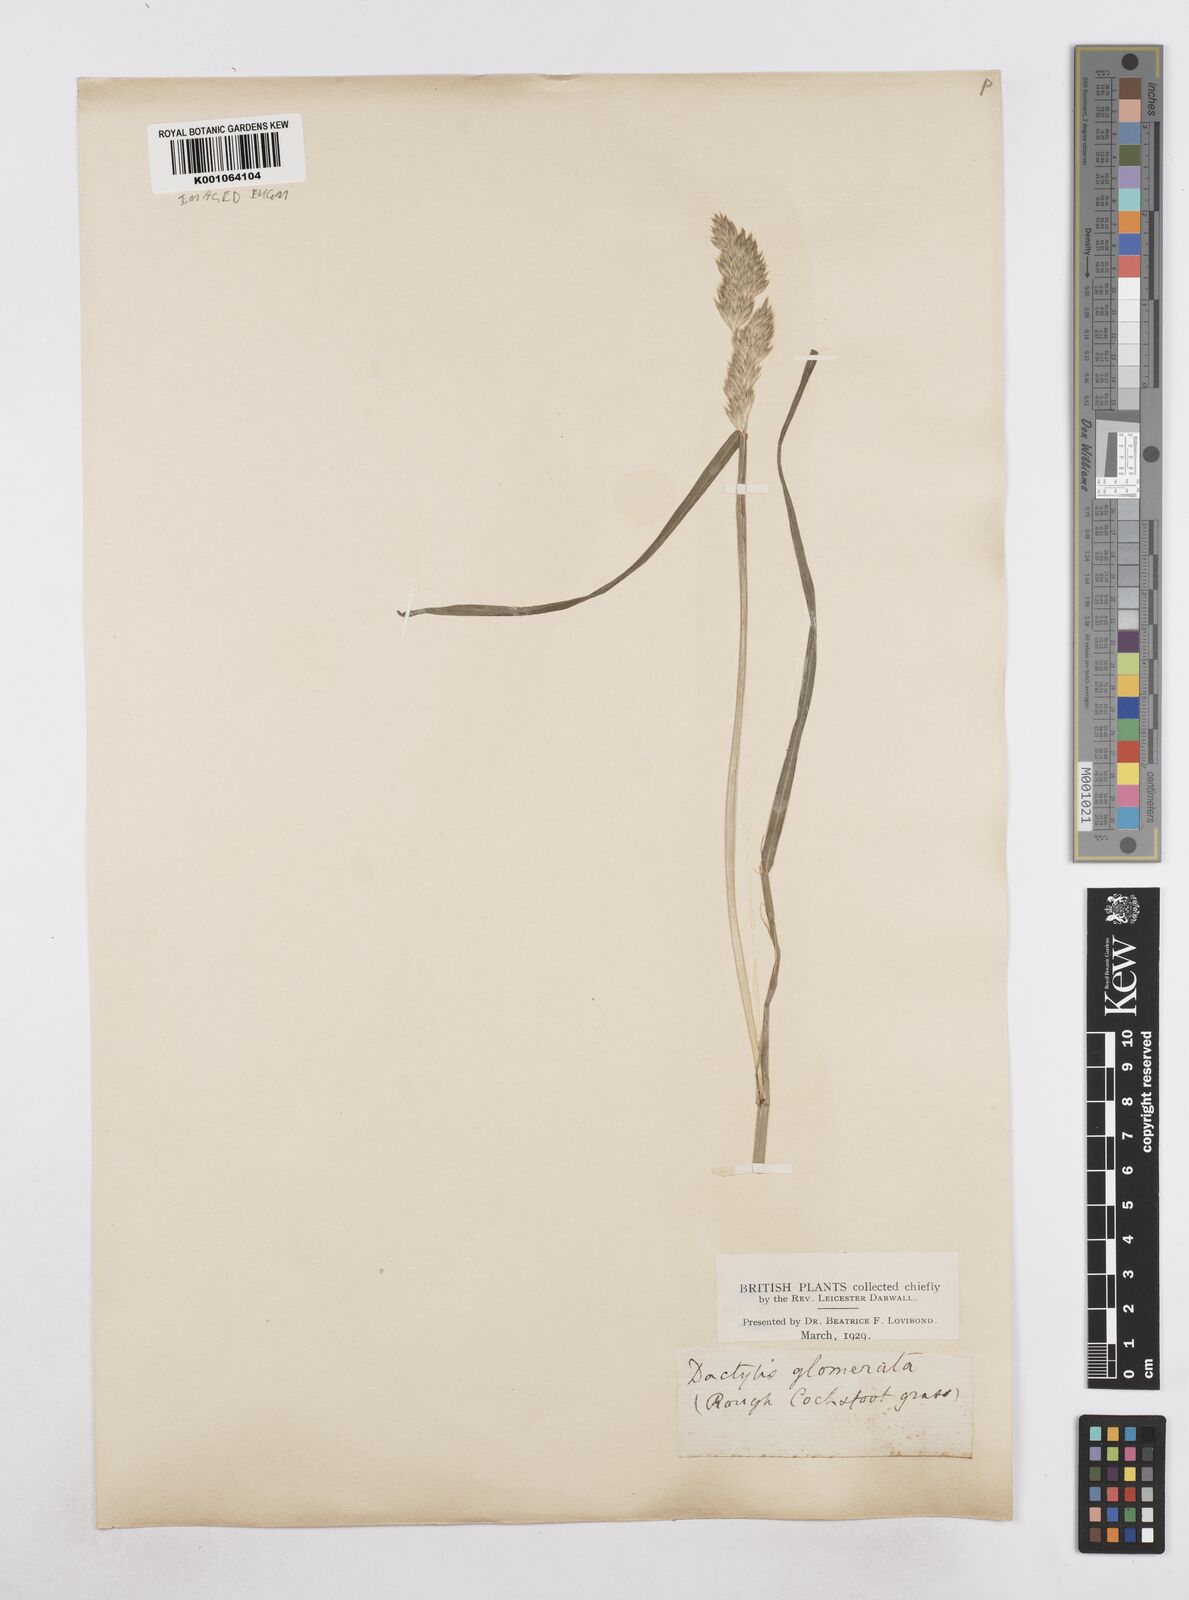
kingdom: Plantae
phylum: Tracheophyta
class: Liliopsida
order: Poales
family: Poaceae
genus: Dactylis
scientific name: Dactylis glomerata
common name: Orchardgrass
